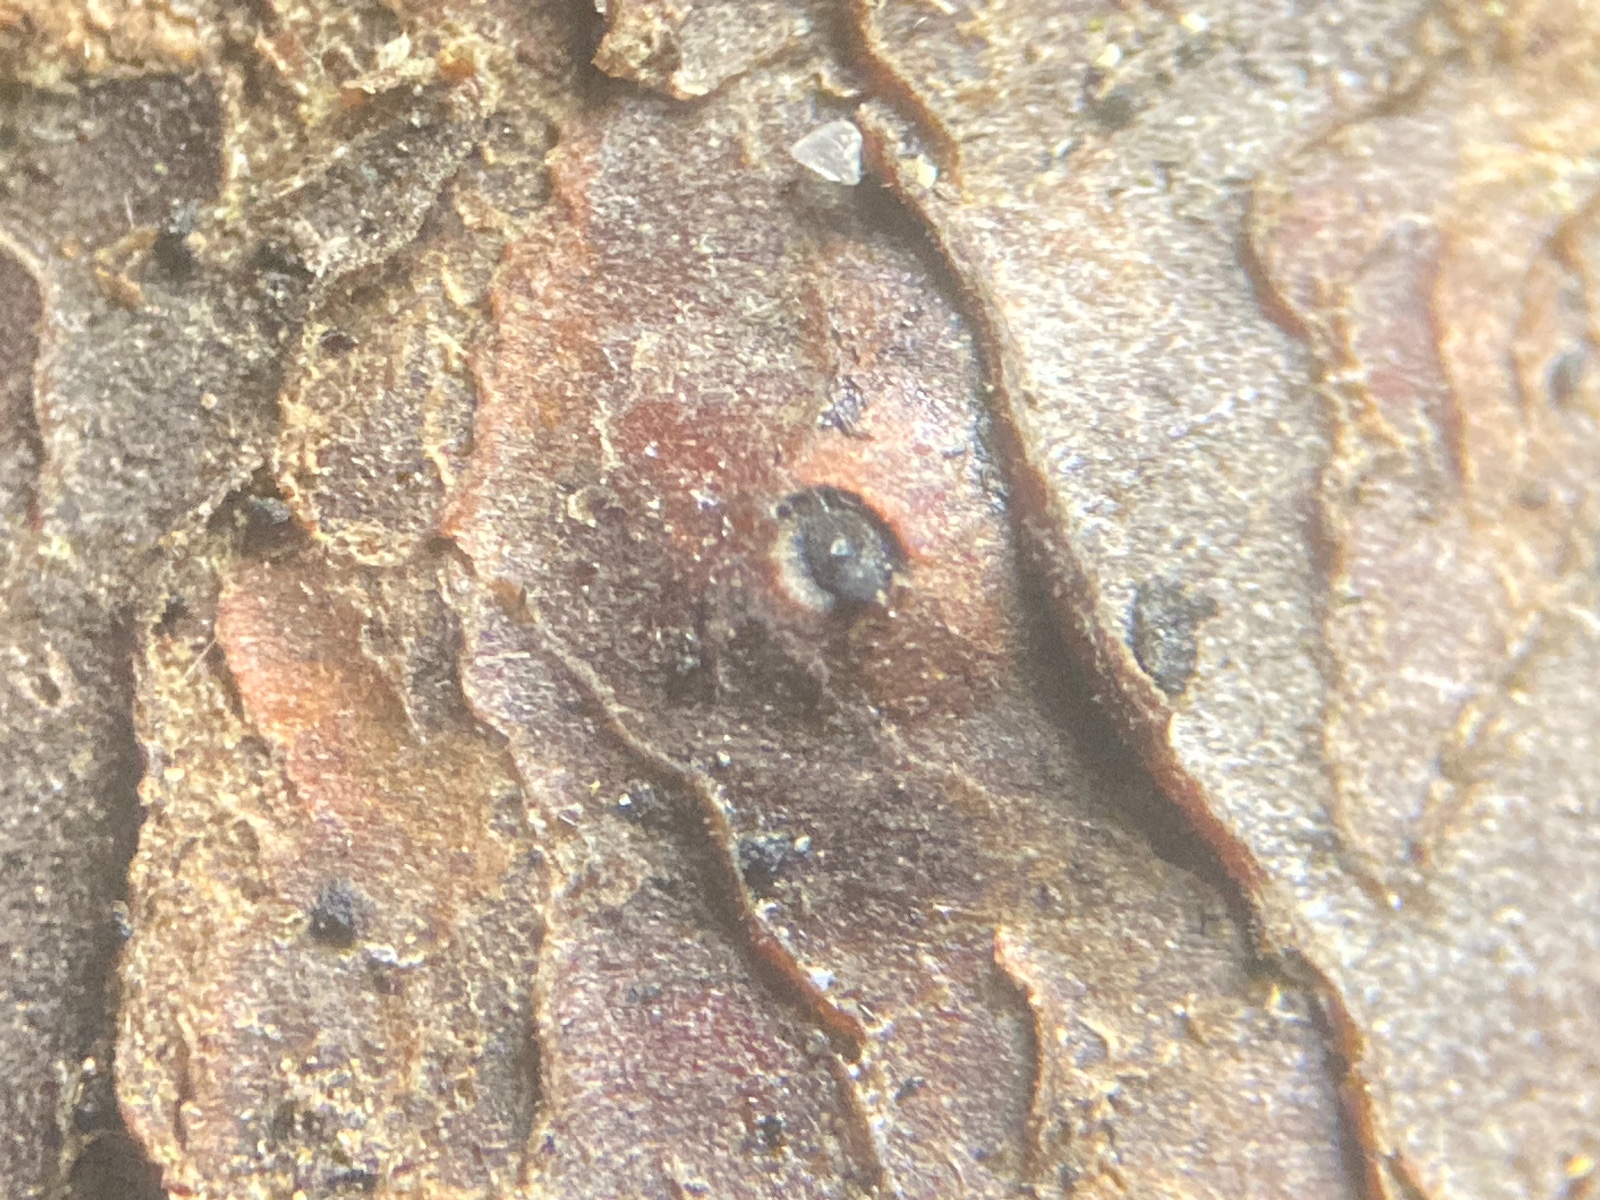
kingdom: Fungi
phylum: Ascomycota
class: Dothideomycetes
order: Pleosporales
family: Massariaceae
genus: Massaria
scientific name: Massaria inquinans
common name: ahorn-kulvulkan
